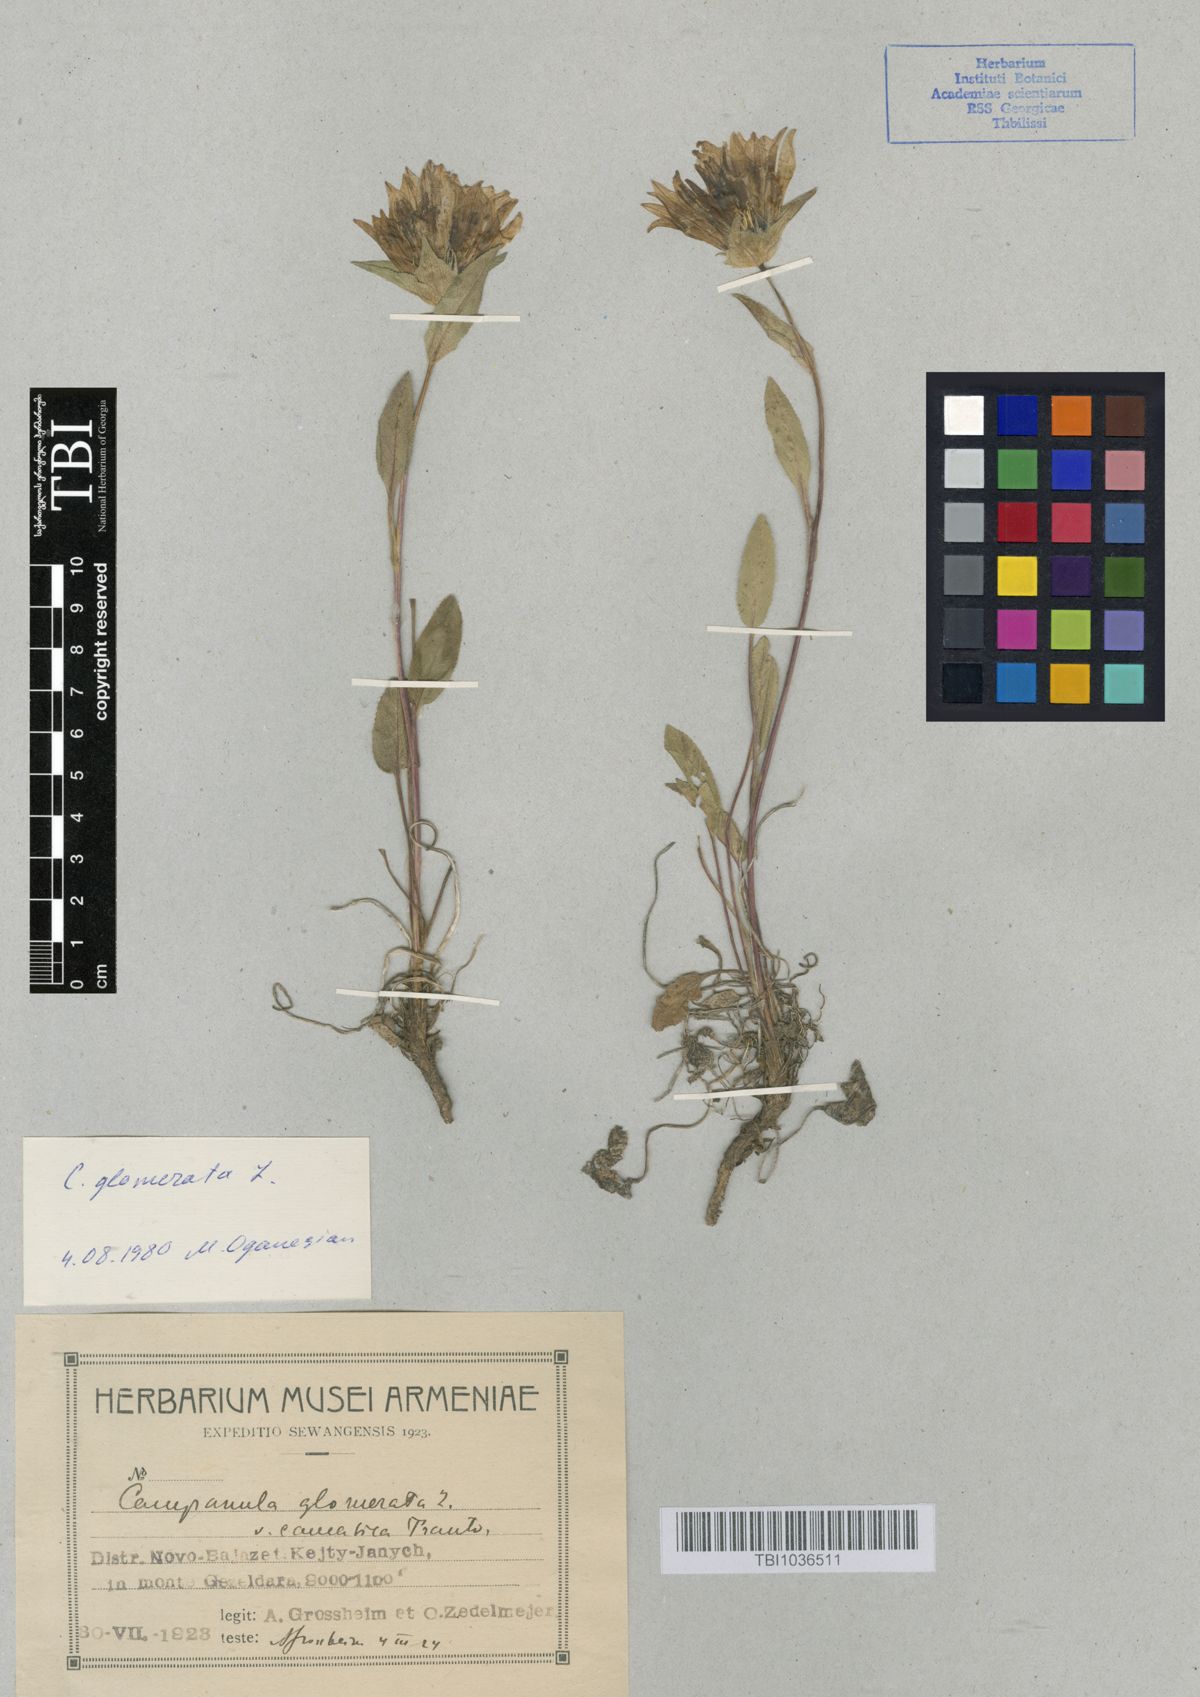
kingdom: Plantae
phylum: Tracheophyta
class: Magnoliopsida
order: Asterales
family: Campanulaceae
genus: Campanula
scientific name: Campanula glomerata
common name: Clustered bellflower
